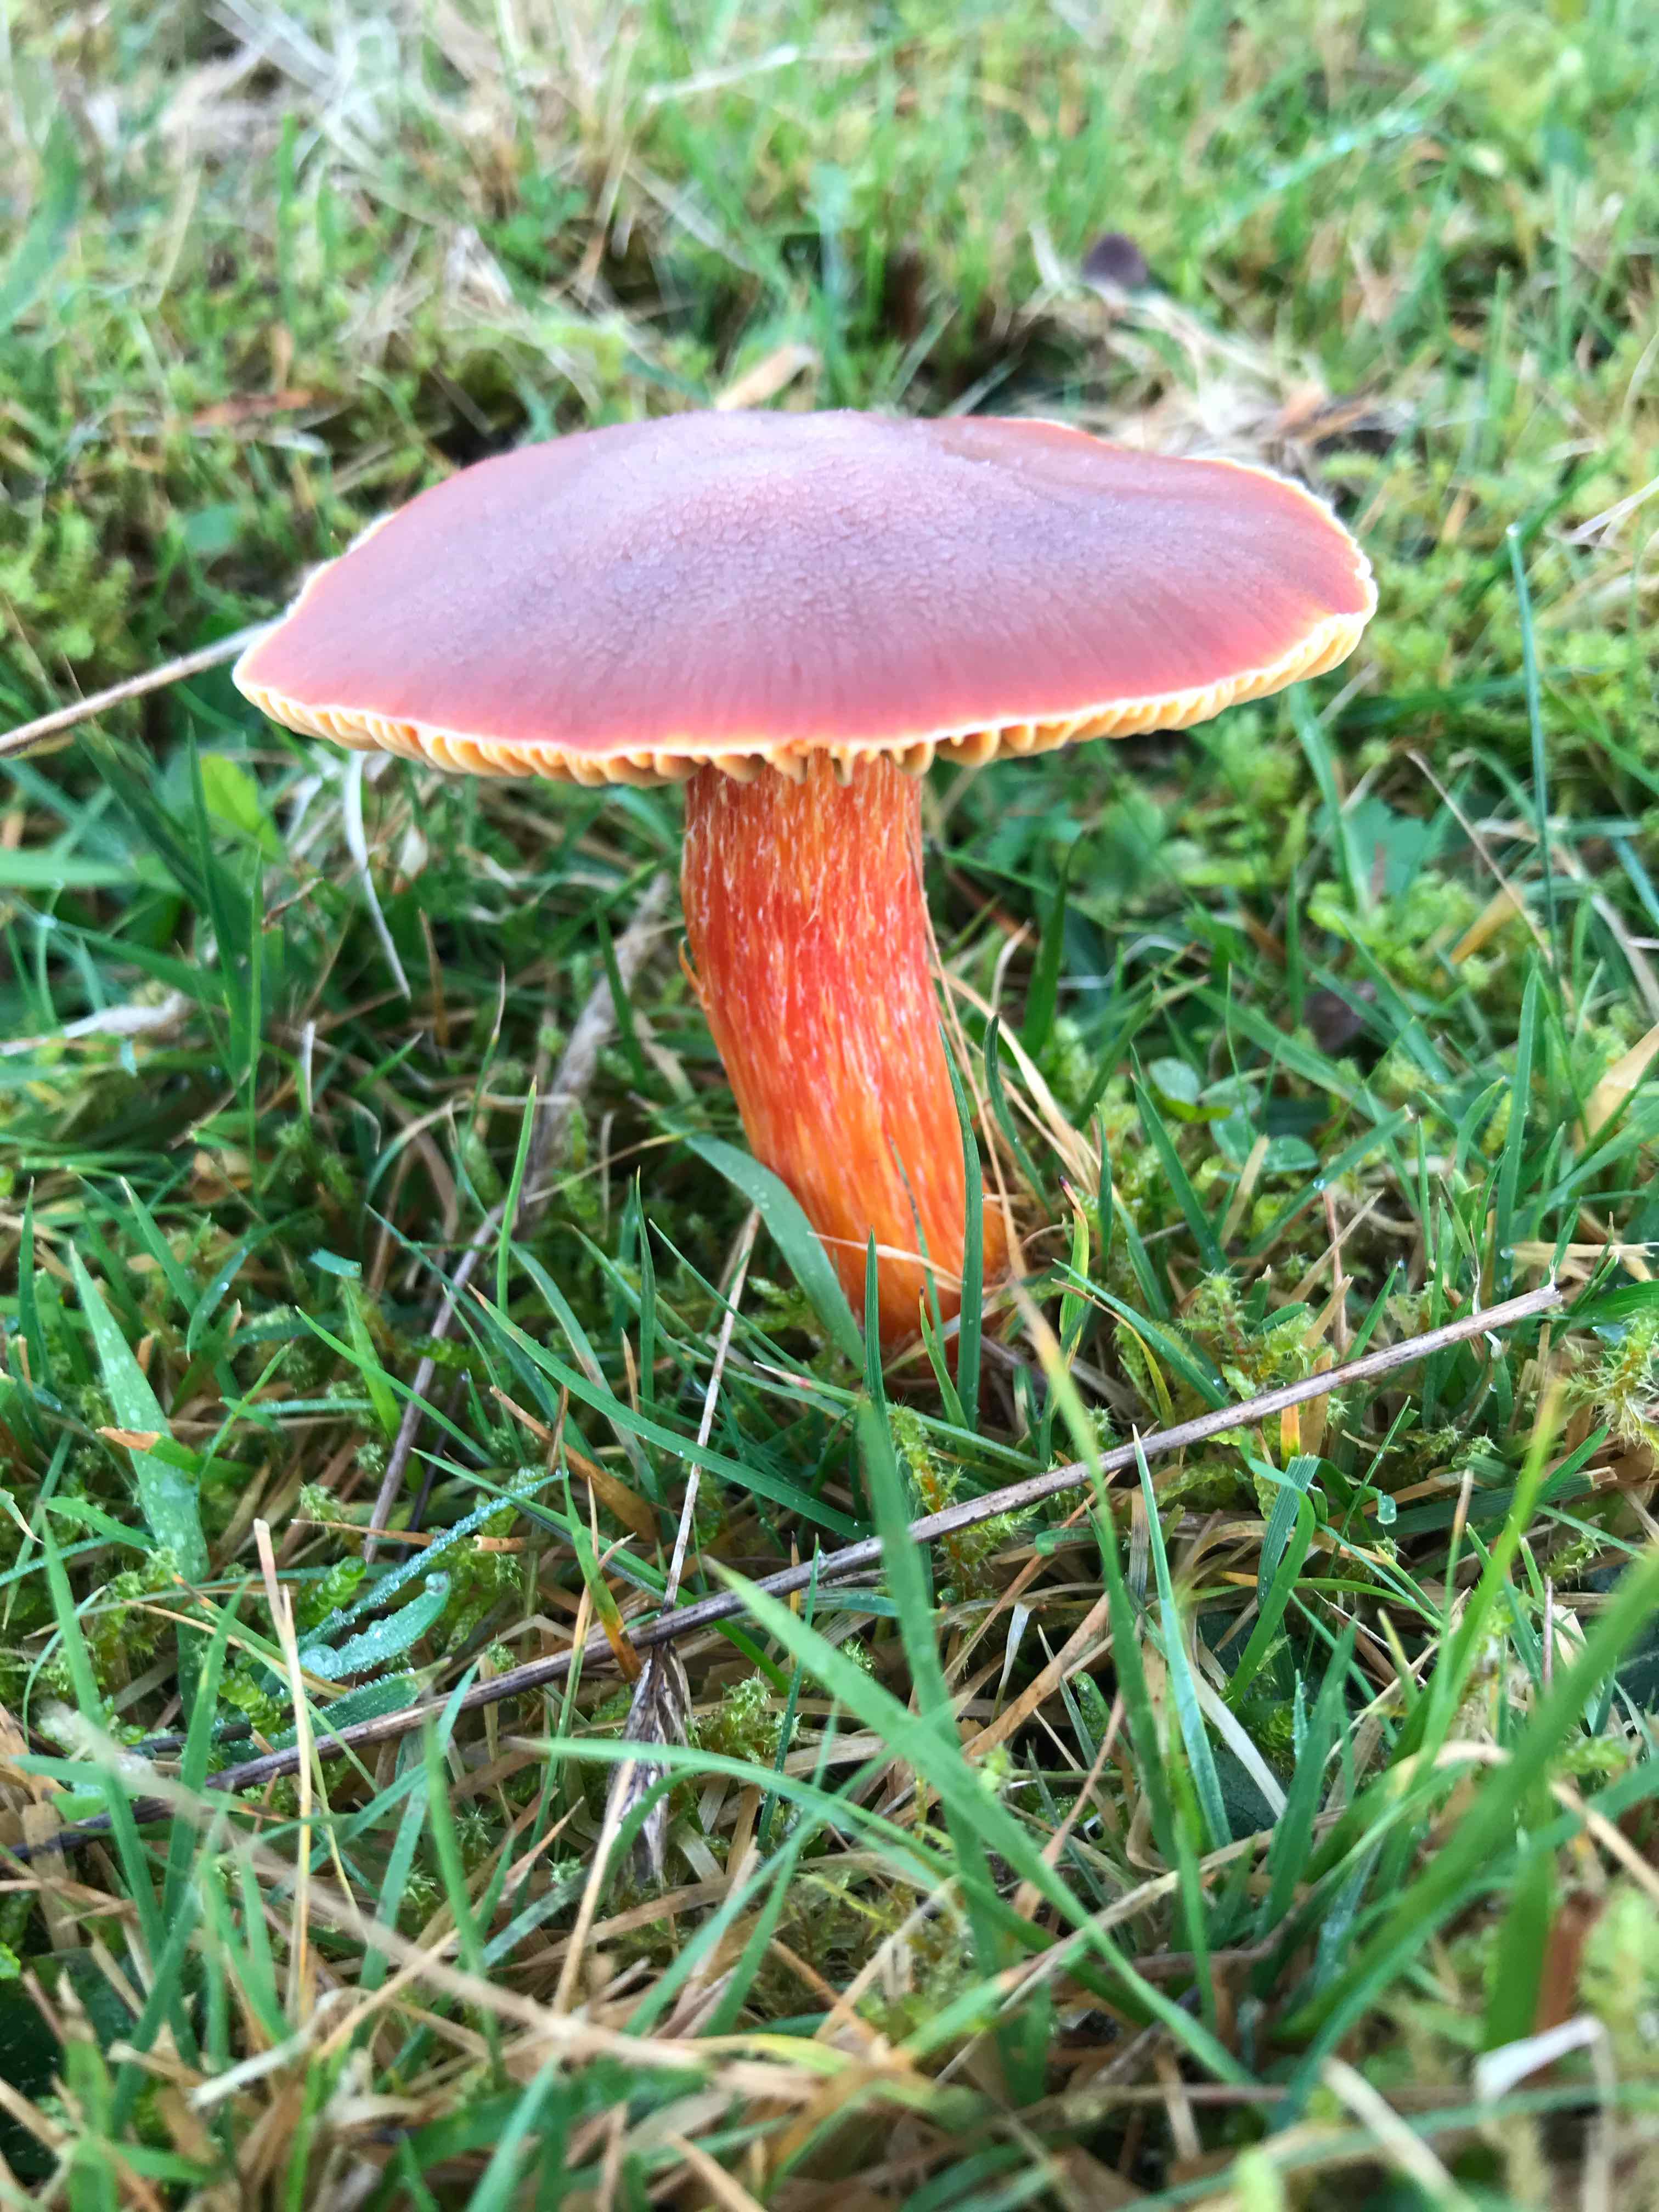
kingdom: Fungi
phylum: Basidiomycota
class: Agaricomycetes
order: Agaricales
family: Hygrophoraceae
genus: Hygrocybe
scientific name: Hygrocybe punicea
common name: skarlagen-vokshat
